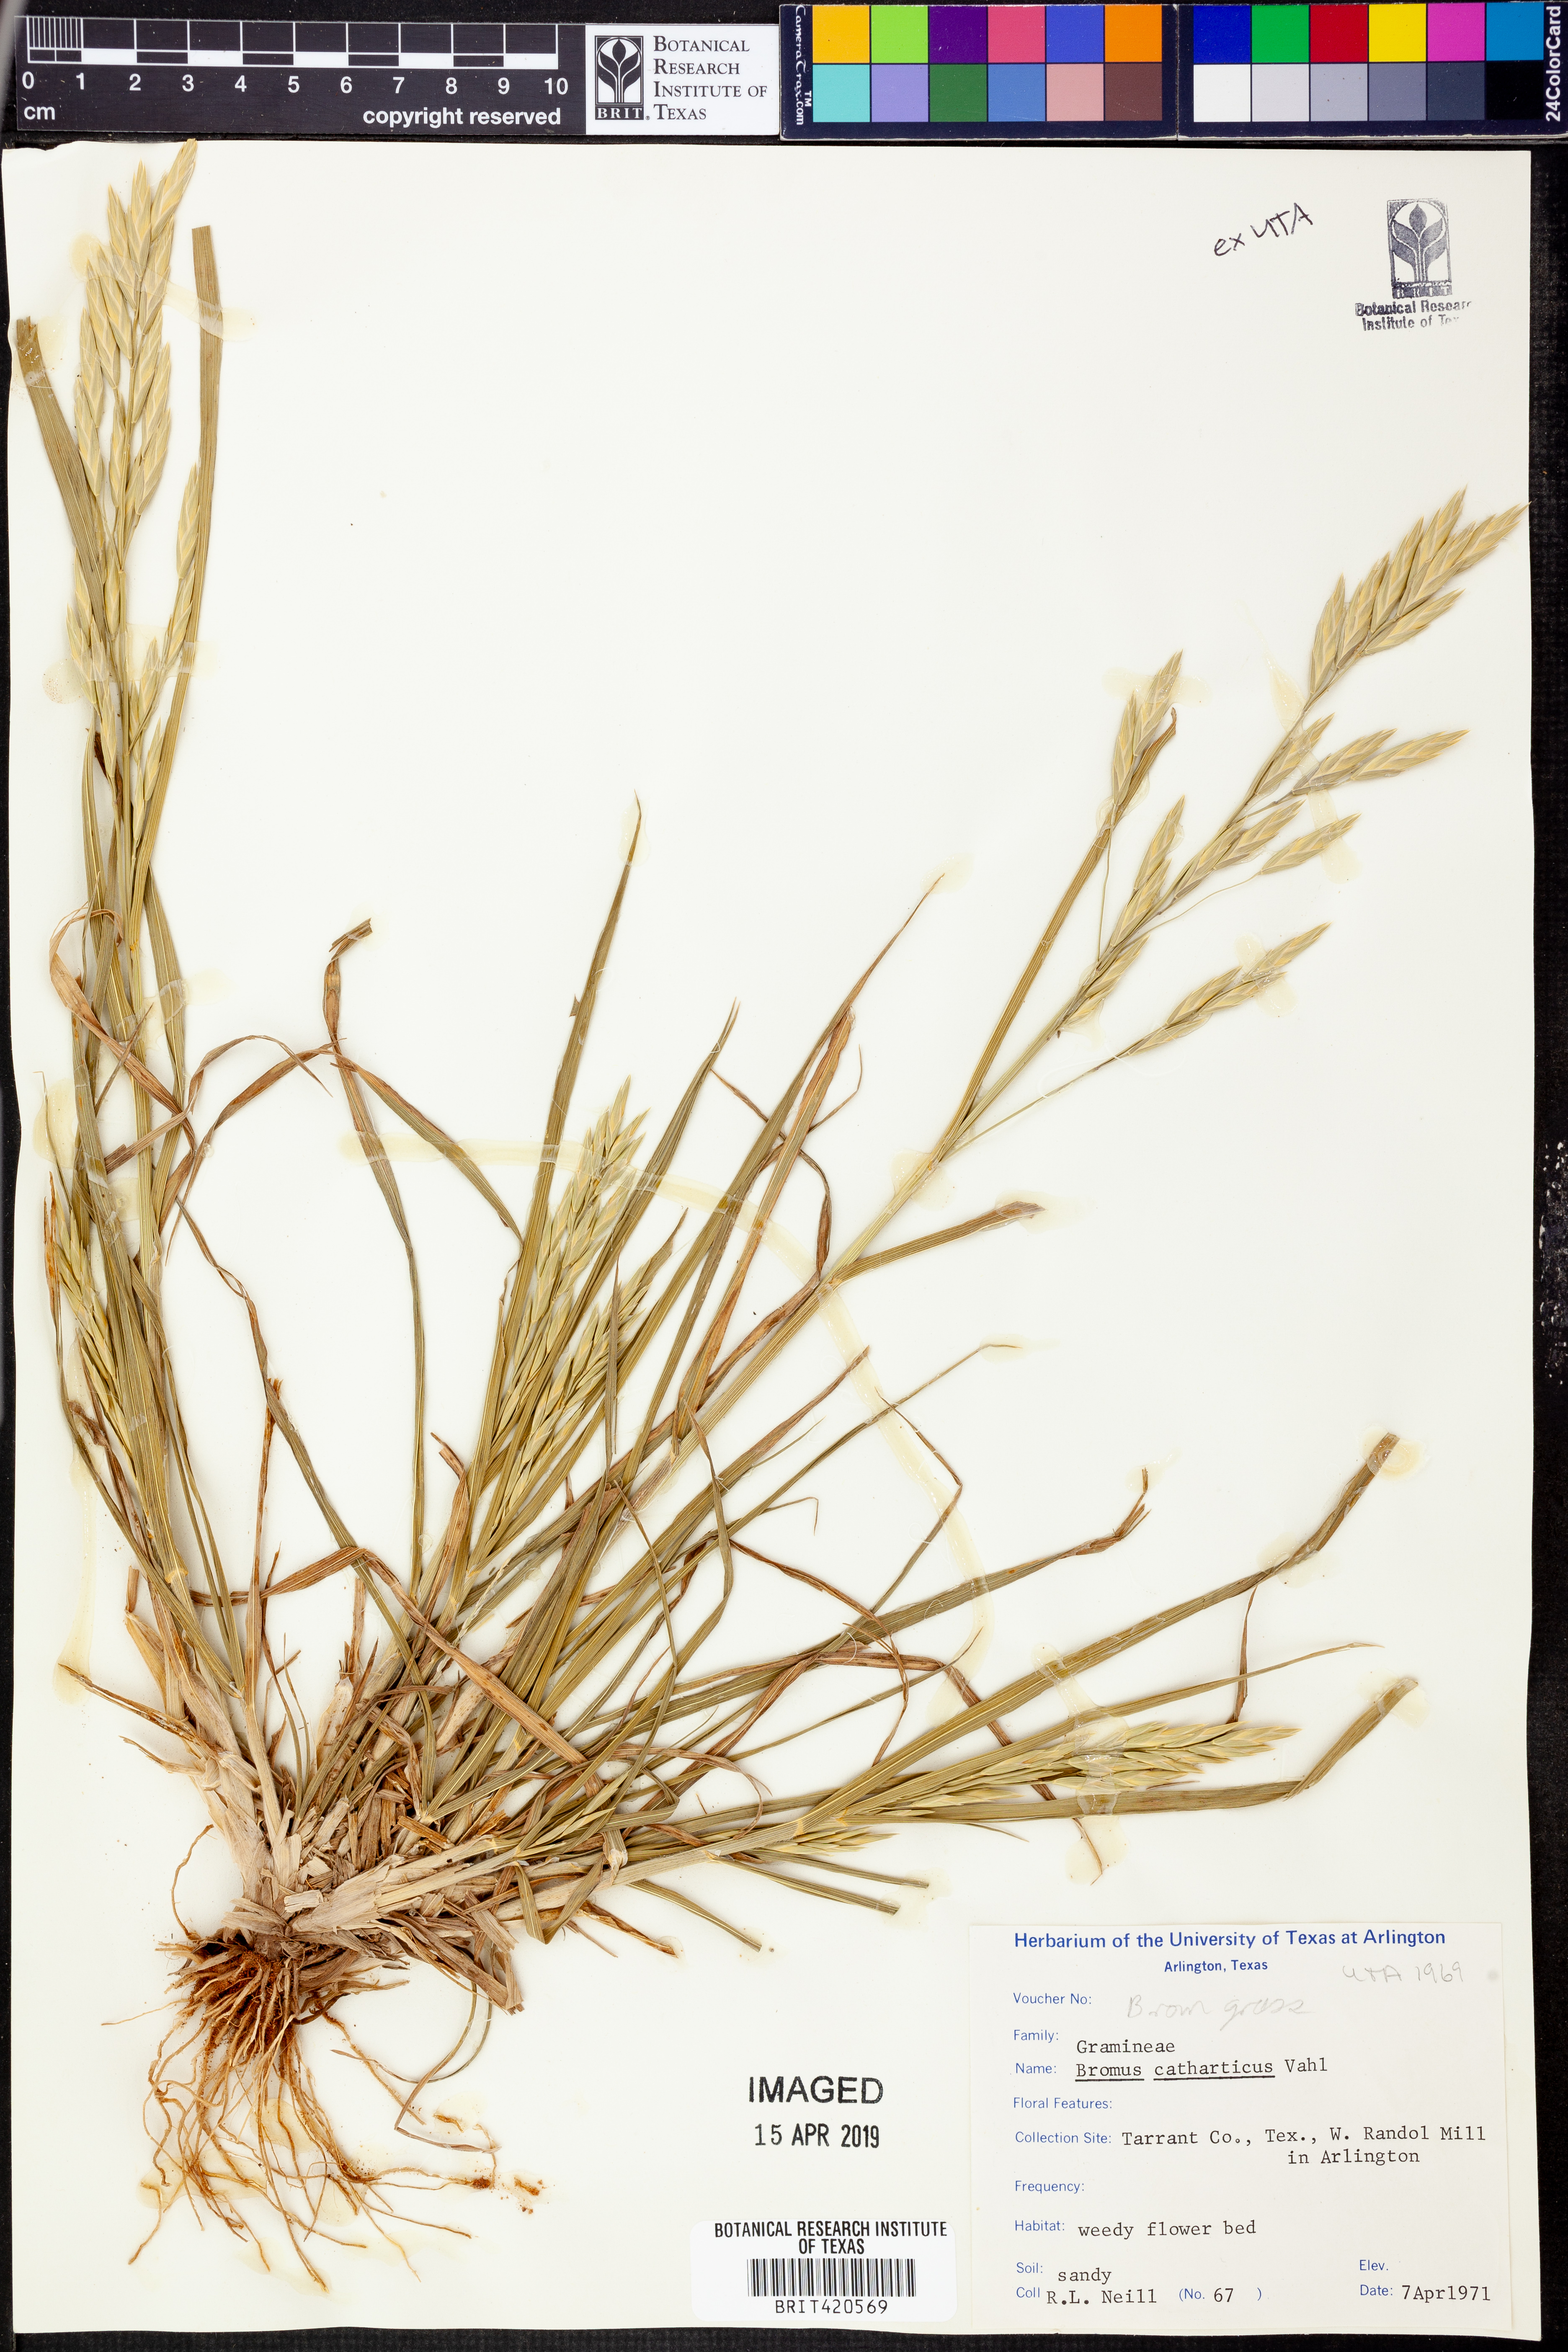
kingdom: Plantae
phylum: Tracheophyta
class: Liliopsida
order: Poales
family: Poaceae
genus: Bromus
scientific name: Bromus catharticus
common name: Rescuegrass
